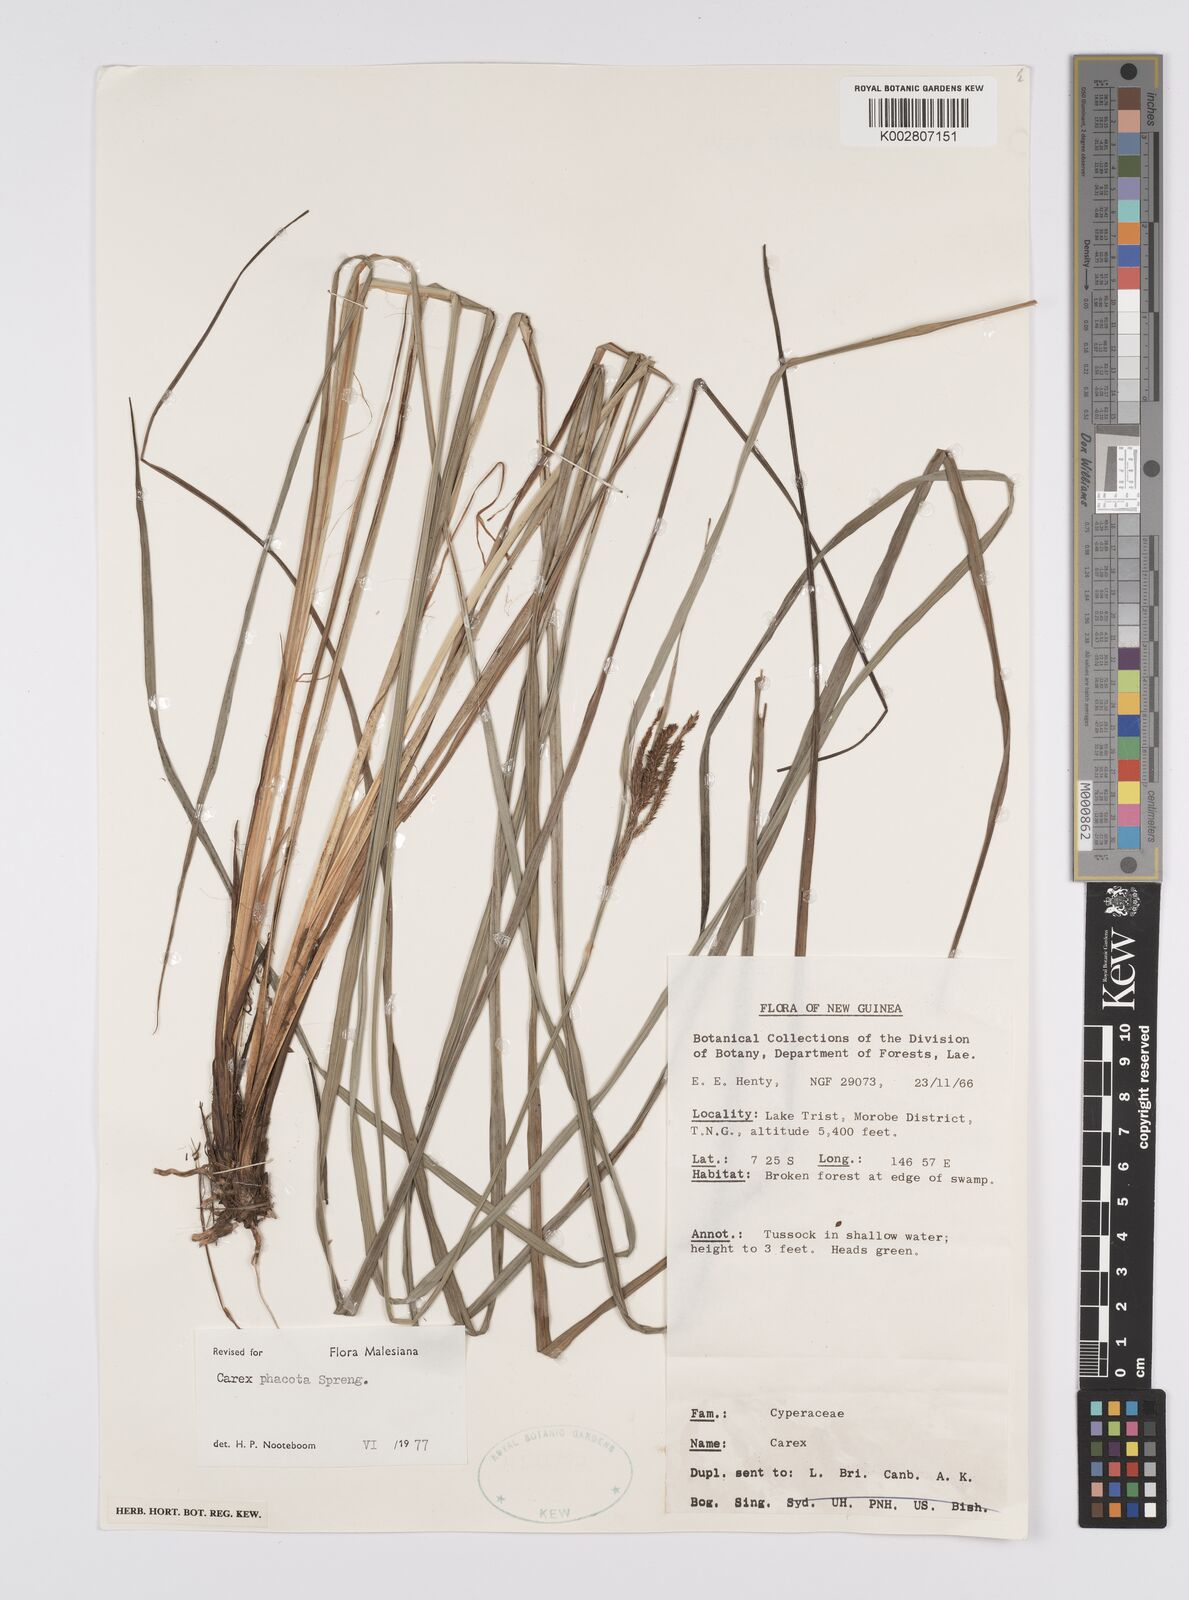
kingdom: Plantae
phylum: Tracheophyta
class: Liliopsida
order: Poales
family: Cyperaceae
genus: Carex
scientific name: Carex phacota
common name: Lakeshore sedge
